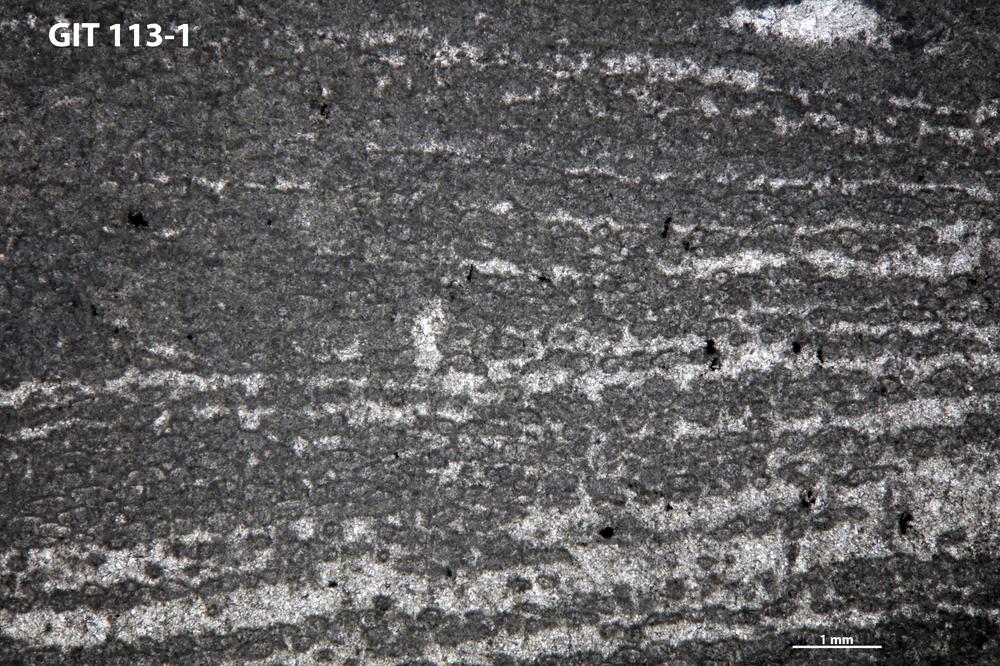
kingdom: Animalia
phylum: Porifera
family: Rosenellidae
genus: Cystostroma
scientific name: Cystostroma estoniense
